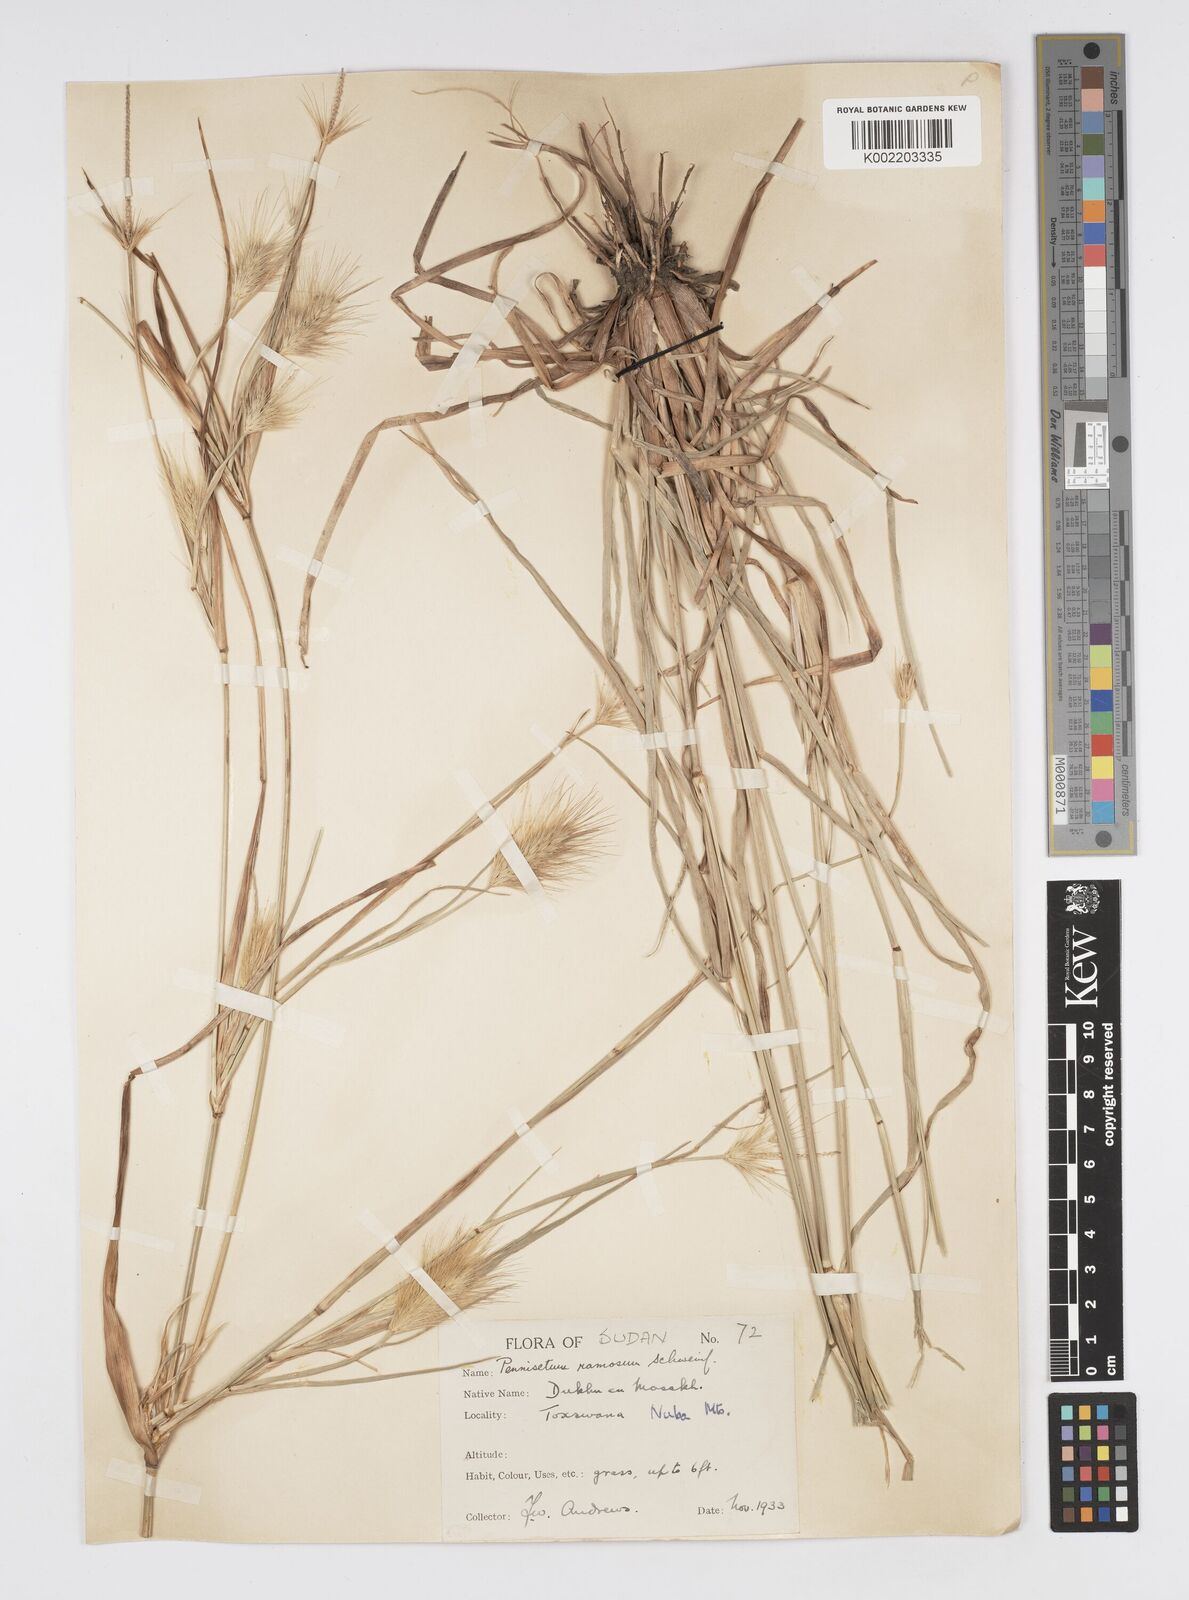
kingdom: Plantae
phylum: Tracheophyta
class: Liliopsida
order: Poales
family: Poaceae
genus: Cenchrus
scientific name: Cenchrus ramosus
